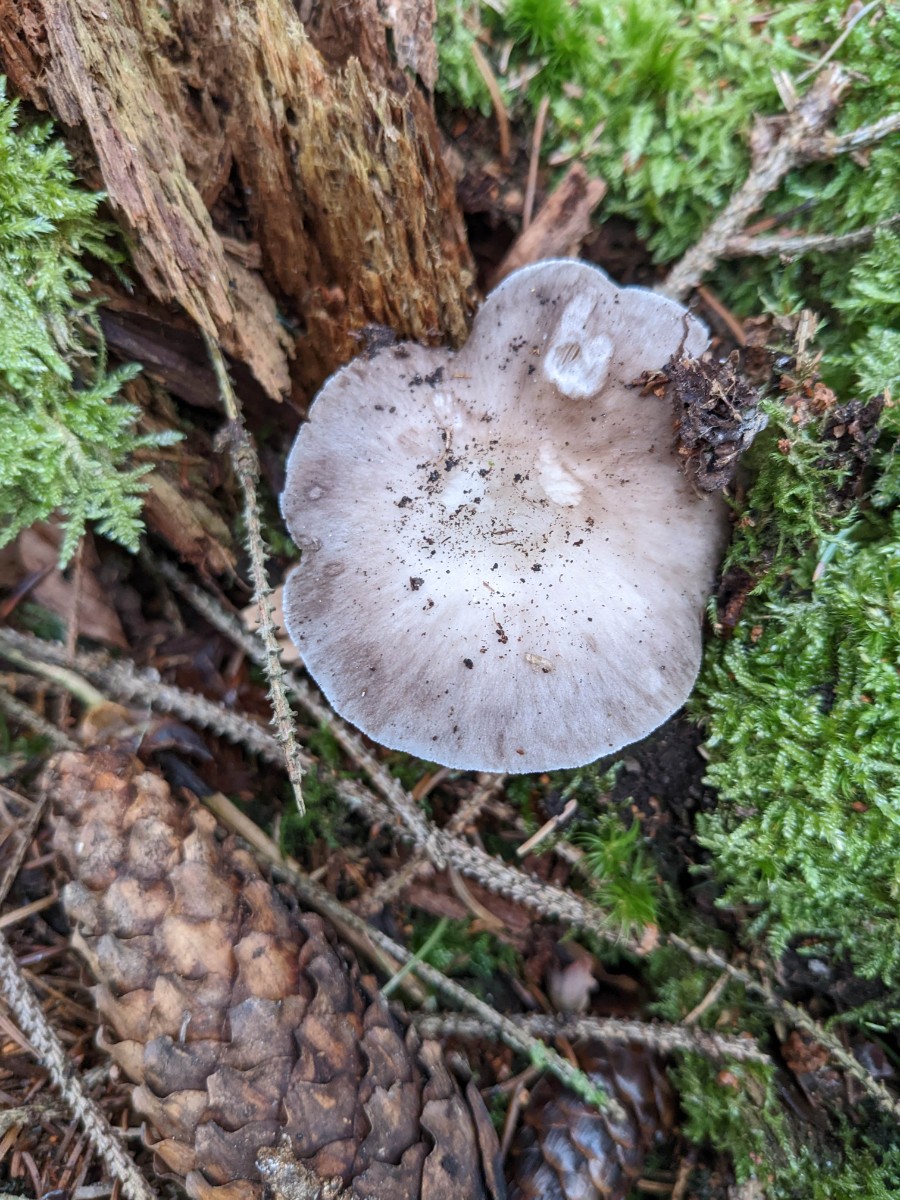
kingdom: Fungi
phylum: Basidiomycota
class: Agaricomycetes
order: Agaricales
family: Pluteaceae
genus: Pluteus
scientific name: Pluteus pouzarianus
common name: plantage-skærmhat
